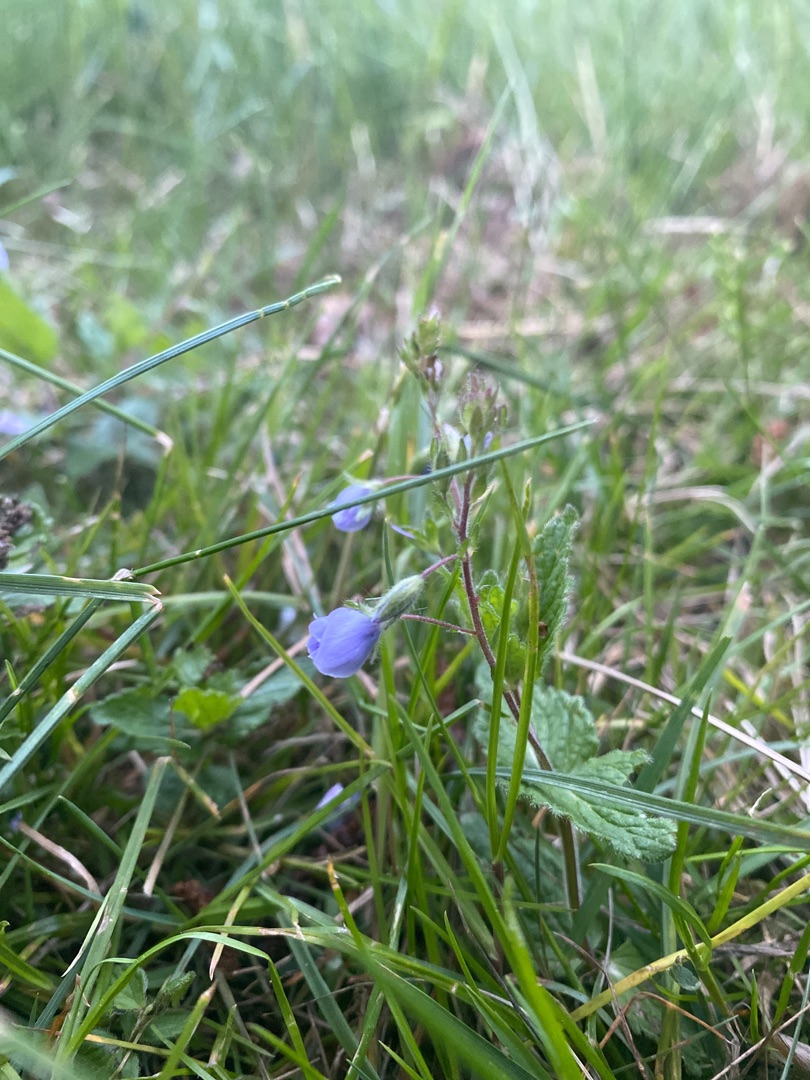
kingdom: Plantae
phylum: Tracheophyta
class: Magnoliopsida
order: Lamiales
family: Plantaginaceae
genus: Veronica
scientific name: Veronica chamaedrys
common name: Tveskægget ærenpris
